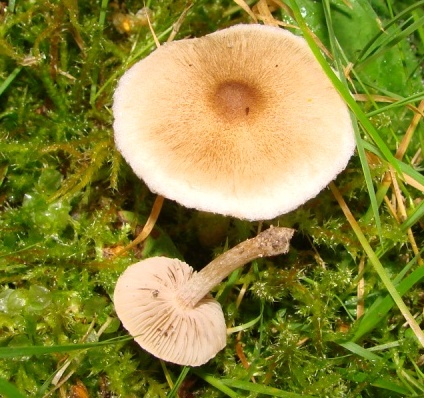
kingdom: Fungi
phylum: Basidiomycota
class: Agaricomycetes
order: Agaricales
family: Inocybaceae
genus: Inocybe
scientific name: Inocybe curvipes
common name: plæne-trævlhat
